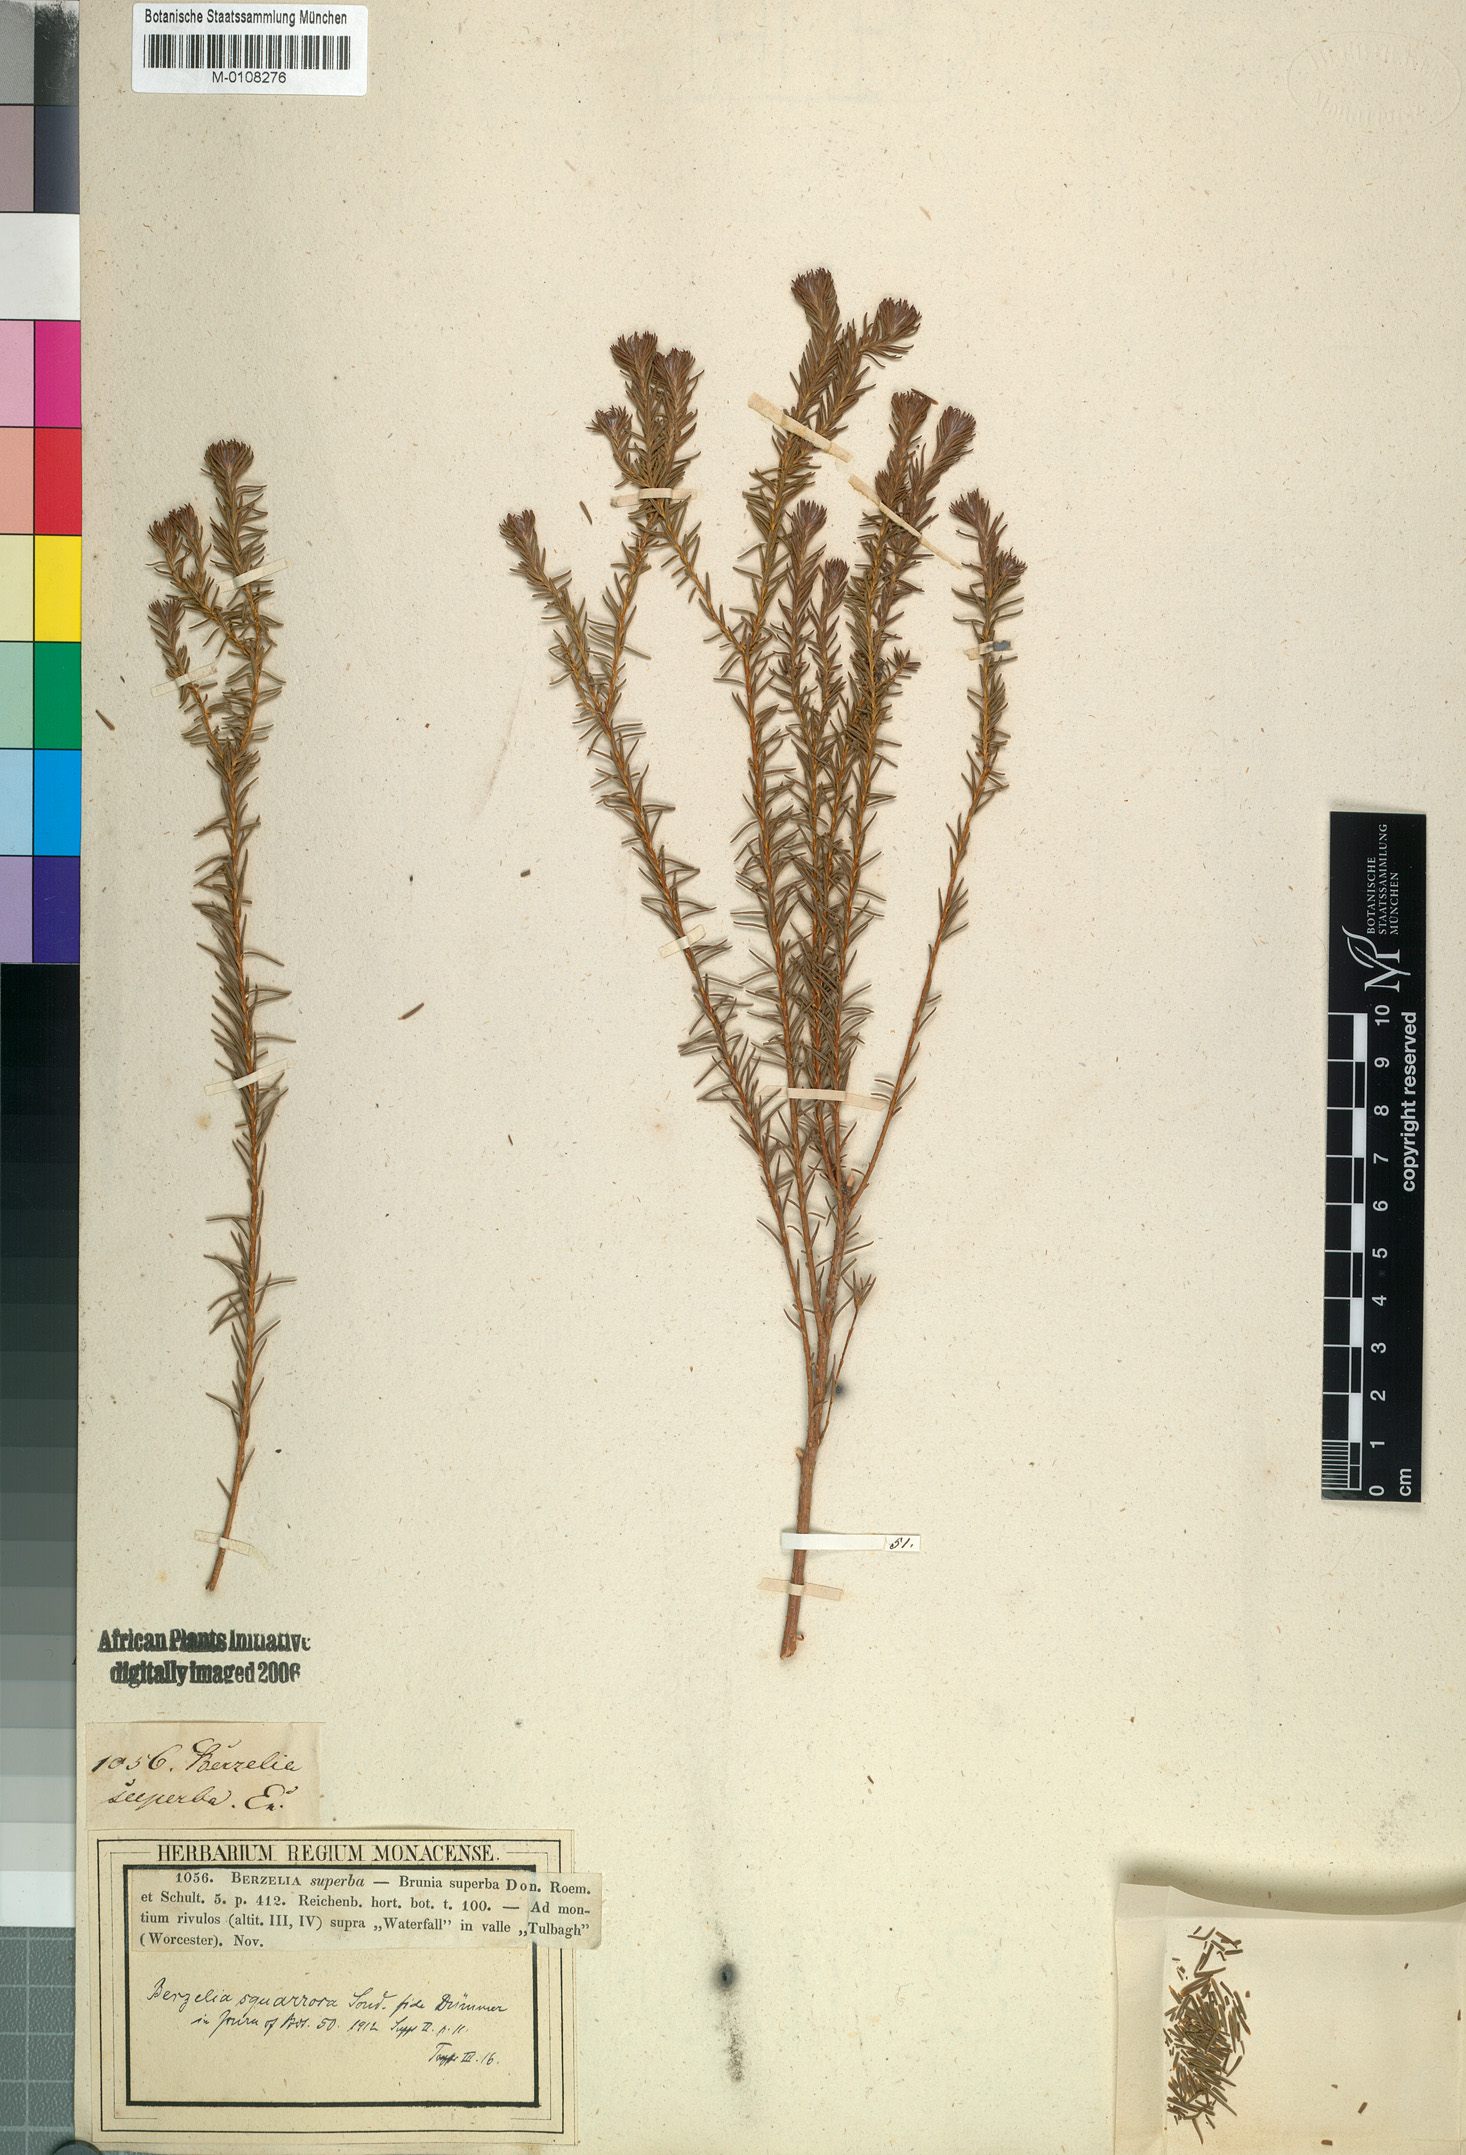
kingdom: Plantae
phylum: Tracheophyta
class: Magnoliopsida
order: Bruniales
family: Bruniaceae
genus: Berzelia
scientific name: Berzelia squarrosa
